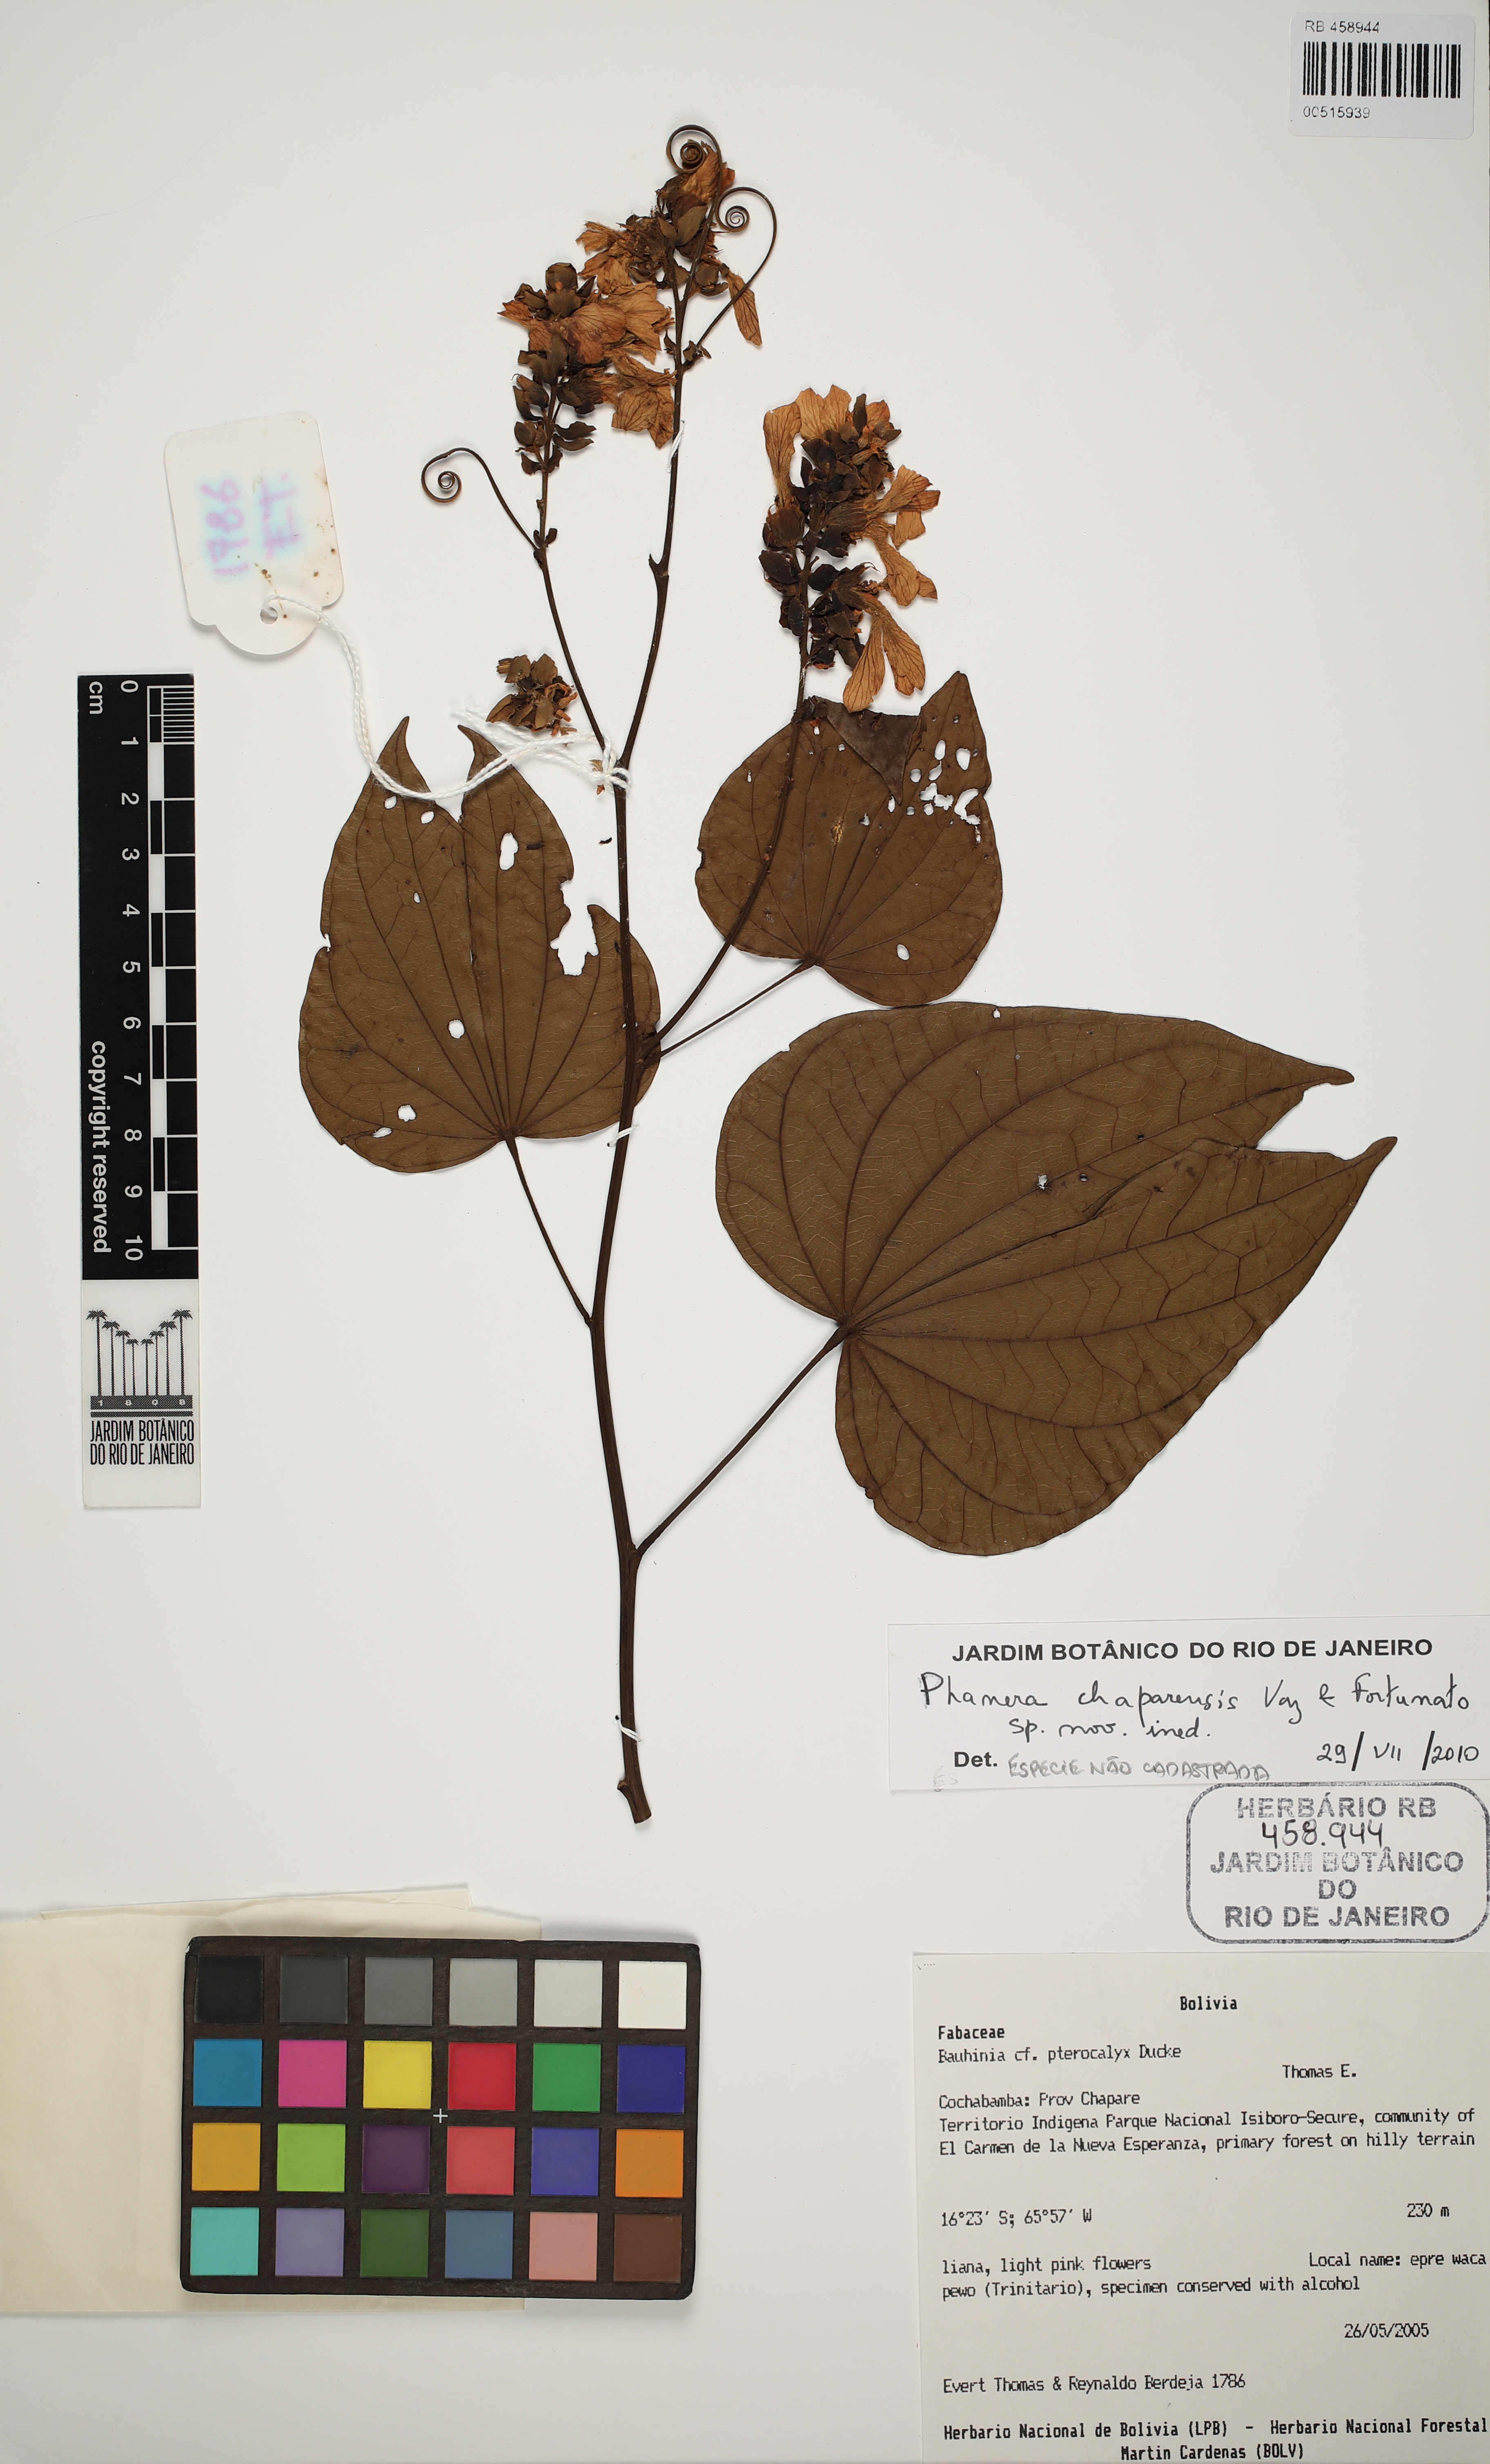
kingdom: Plantae
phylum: Tracheophyta
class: Magnoliopsida
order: Fabales
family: Fabaceae
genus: Phanera
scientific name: Phanera
